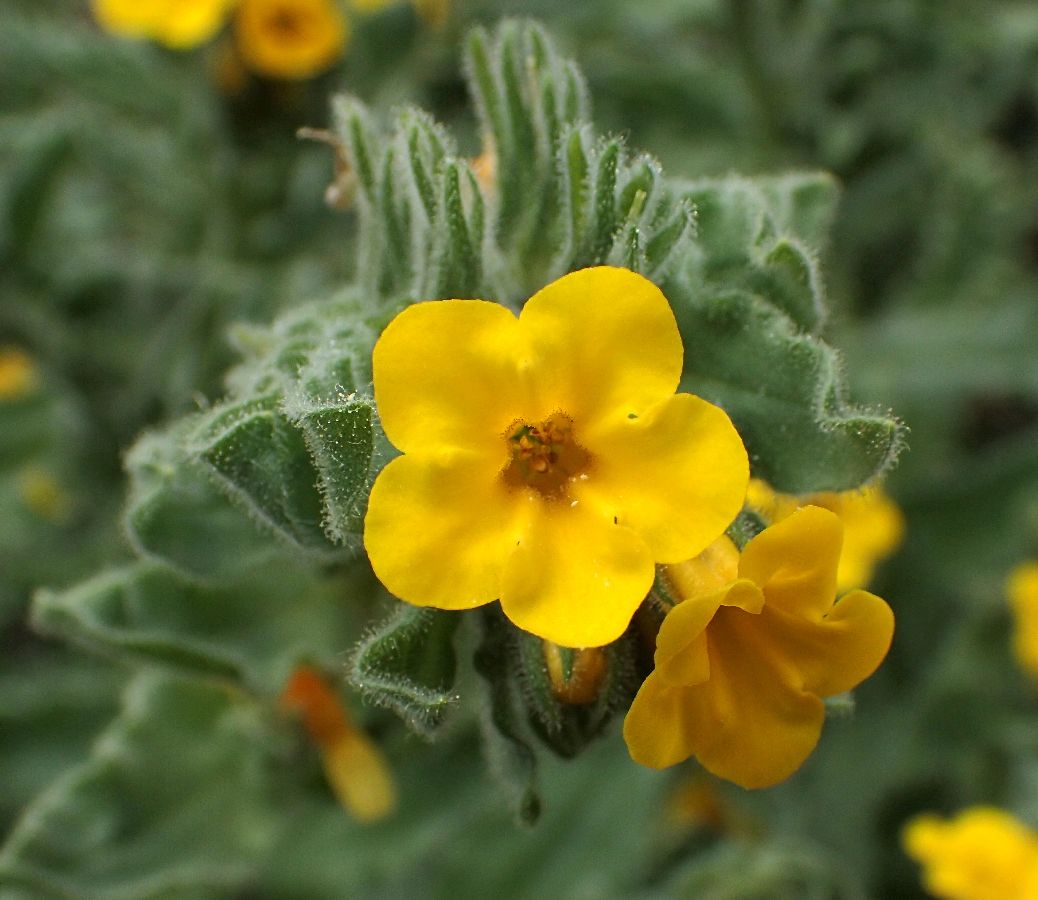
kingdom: Plantae
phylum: Tracheophyta
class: Magnoliopsida
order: Boraginales
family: Boraginaceae
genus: Alkanna
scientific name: Alkanna hellenica
